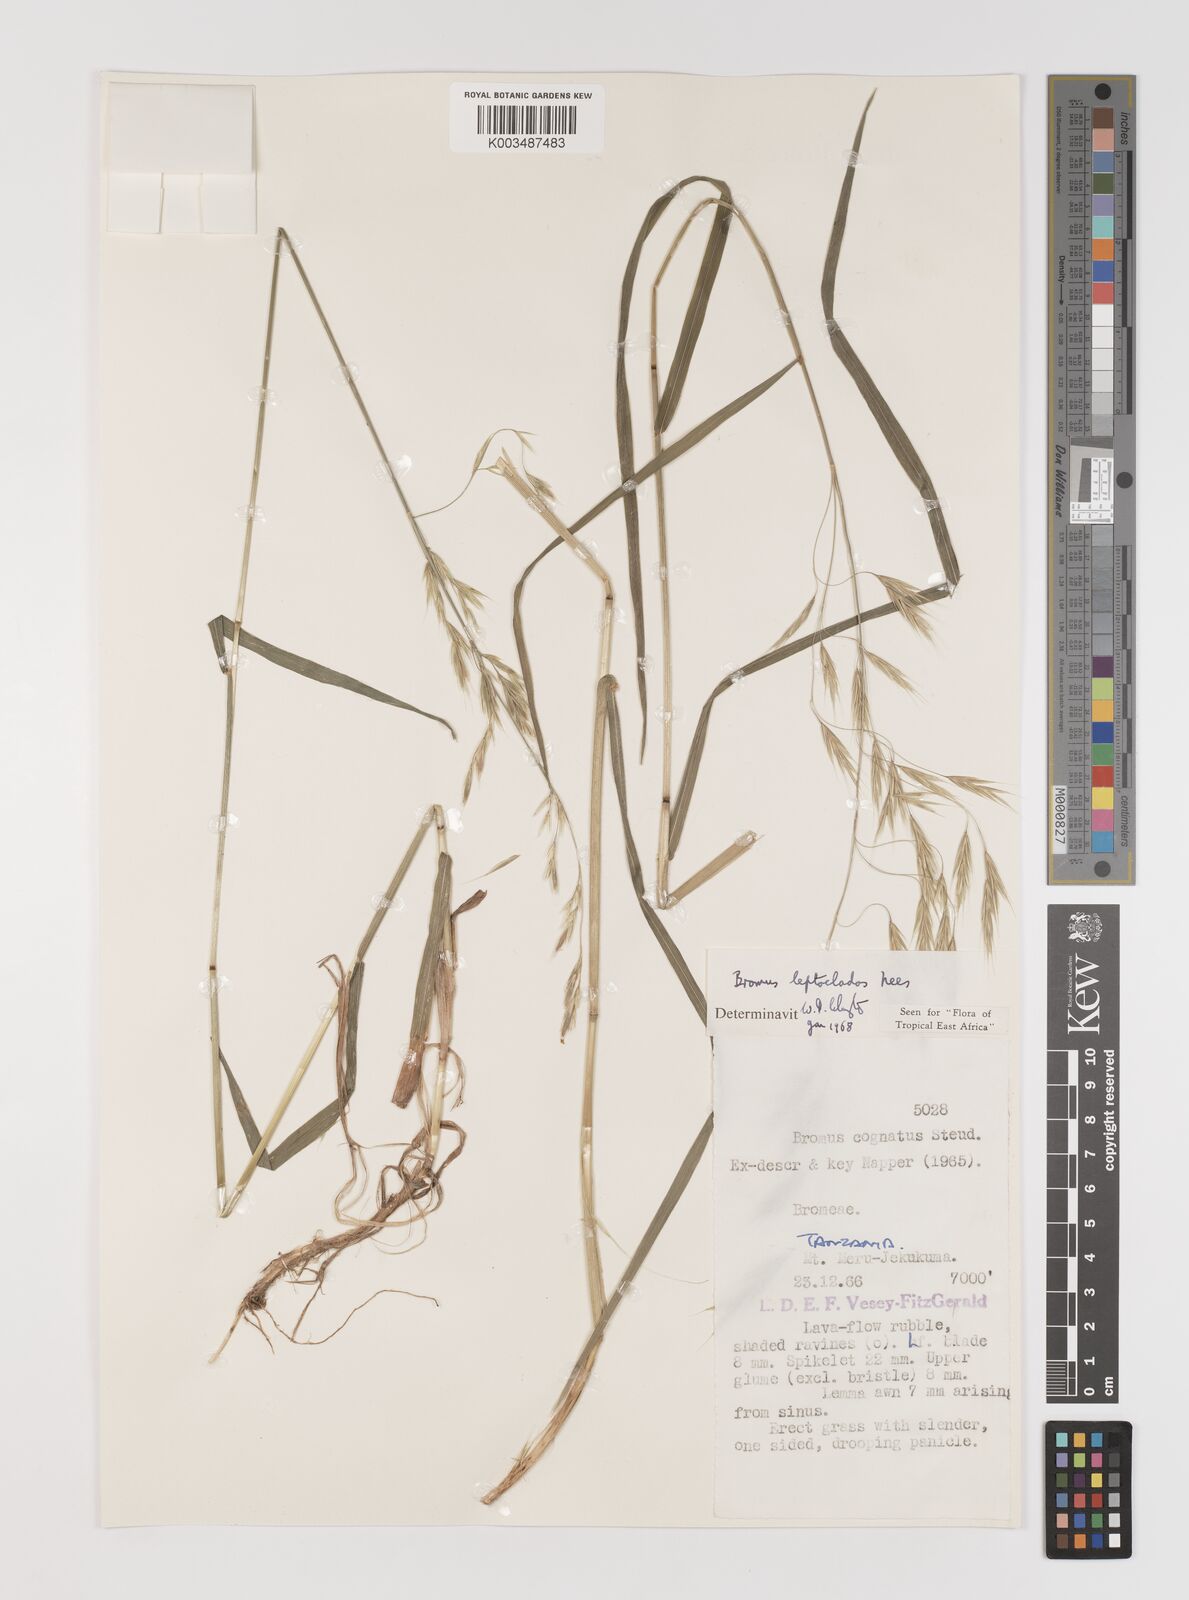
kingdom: Plantae
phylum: Tracheophyta
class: Liliopsida
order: Poales
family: Poaceae
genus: Bromus
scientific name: Bromus leptoclados
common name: Mountain bromegrass
